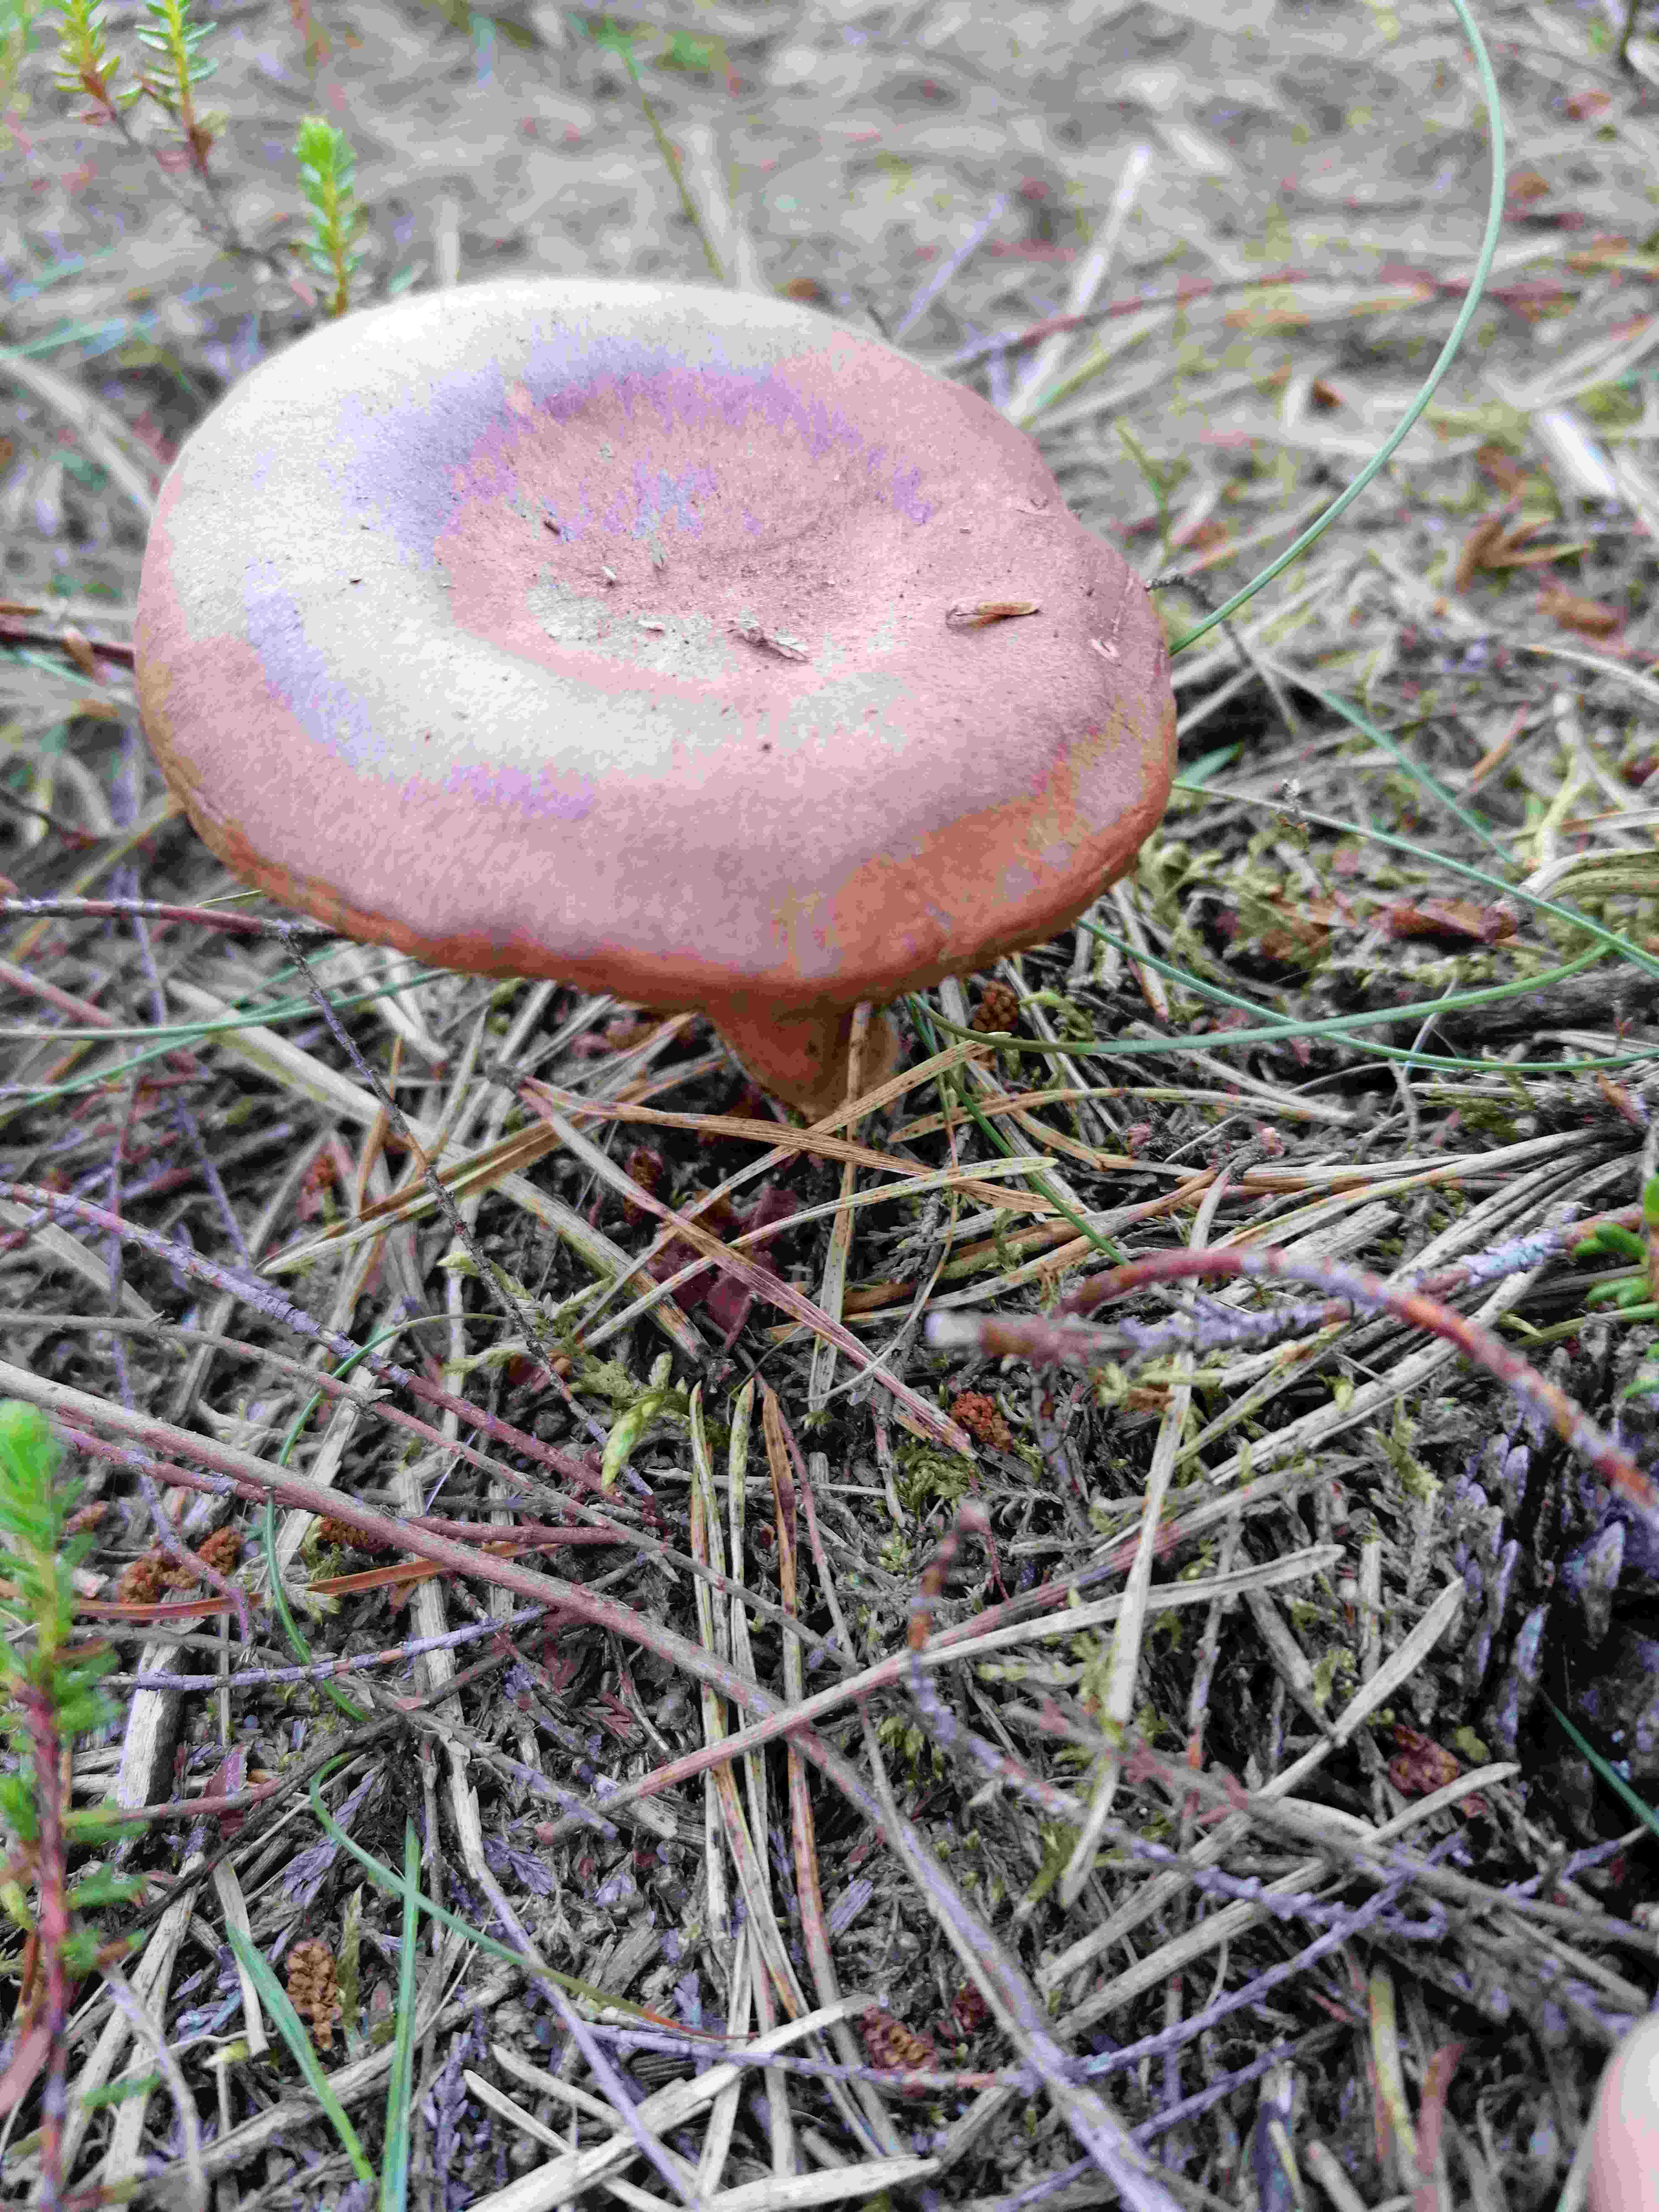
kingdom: Fungi
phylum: Basidiomycota
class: Agaricomycetes
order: Russulales
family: Russulaceae
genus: Lactarius
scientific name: Lactarius rufus
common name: rødbrun mælkehat
